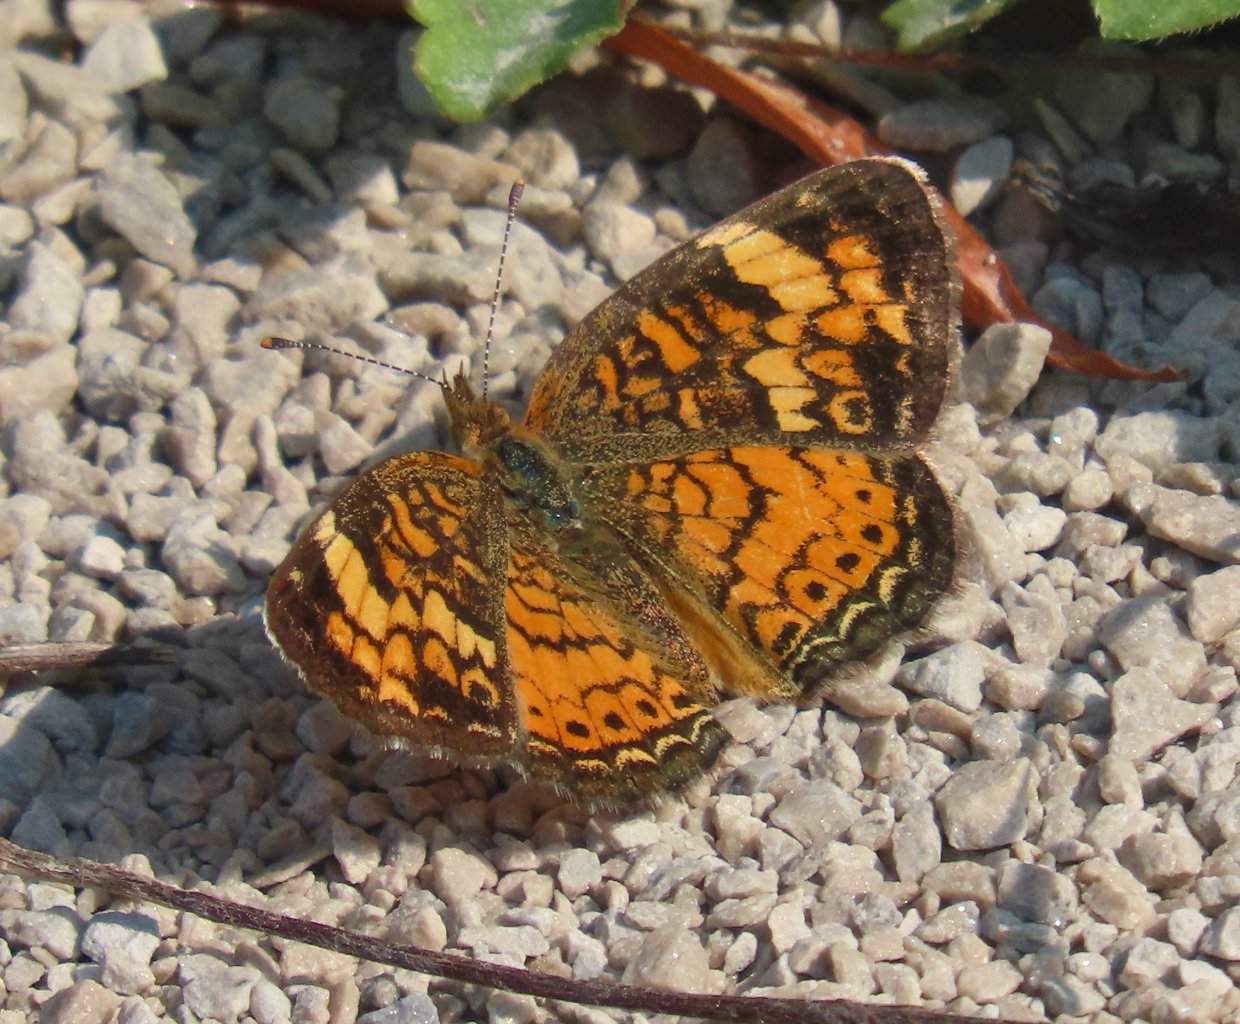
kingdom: Animalia
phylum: Arthropoda
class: Insecta
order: Lepidoptera
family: Nymphalidae
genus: Phyciodes
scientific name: Phyciodes tharos
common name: Pearl Crescent
